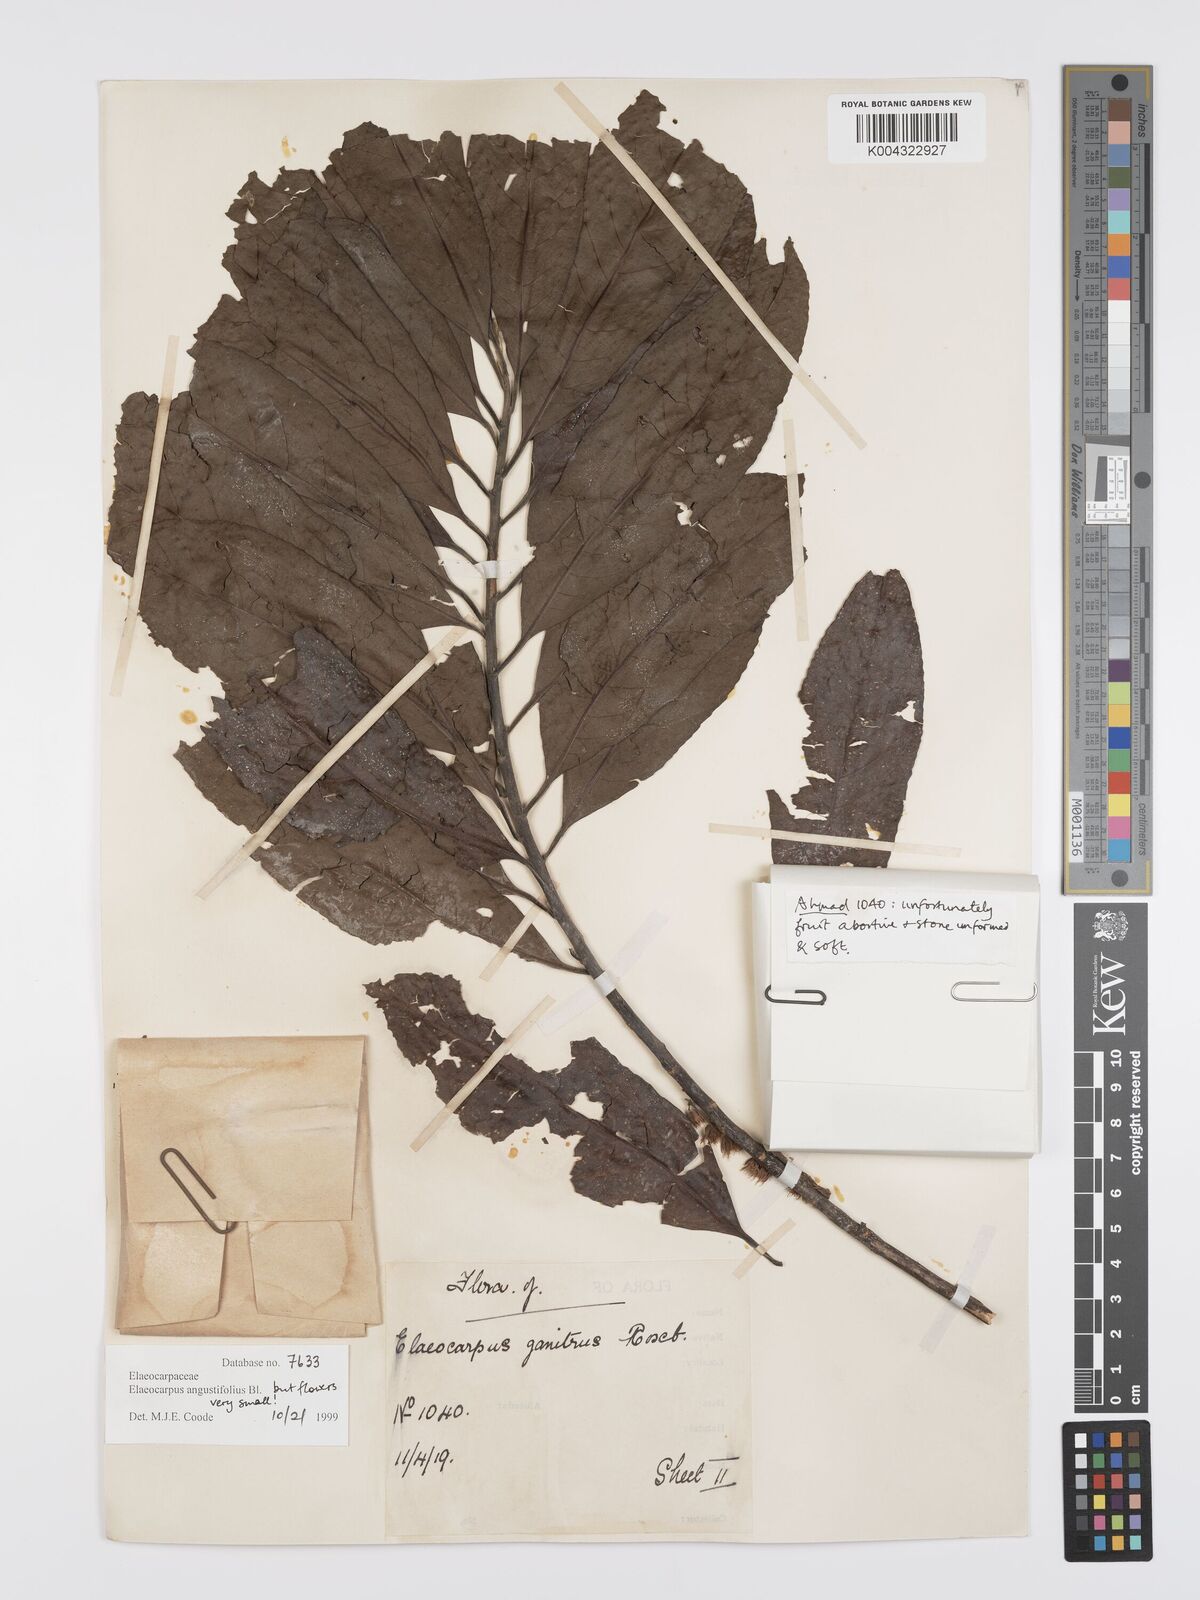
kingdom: Plantae
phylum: Tracheophyta
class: Magnoliopsida
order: Oxalidales
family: Elaeocarpaceae
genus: Elaeocarpus
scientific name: Elaeocarpus
